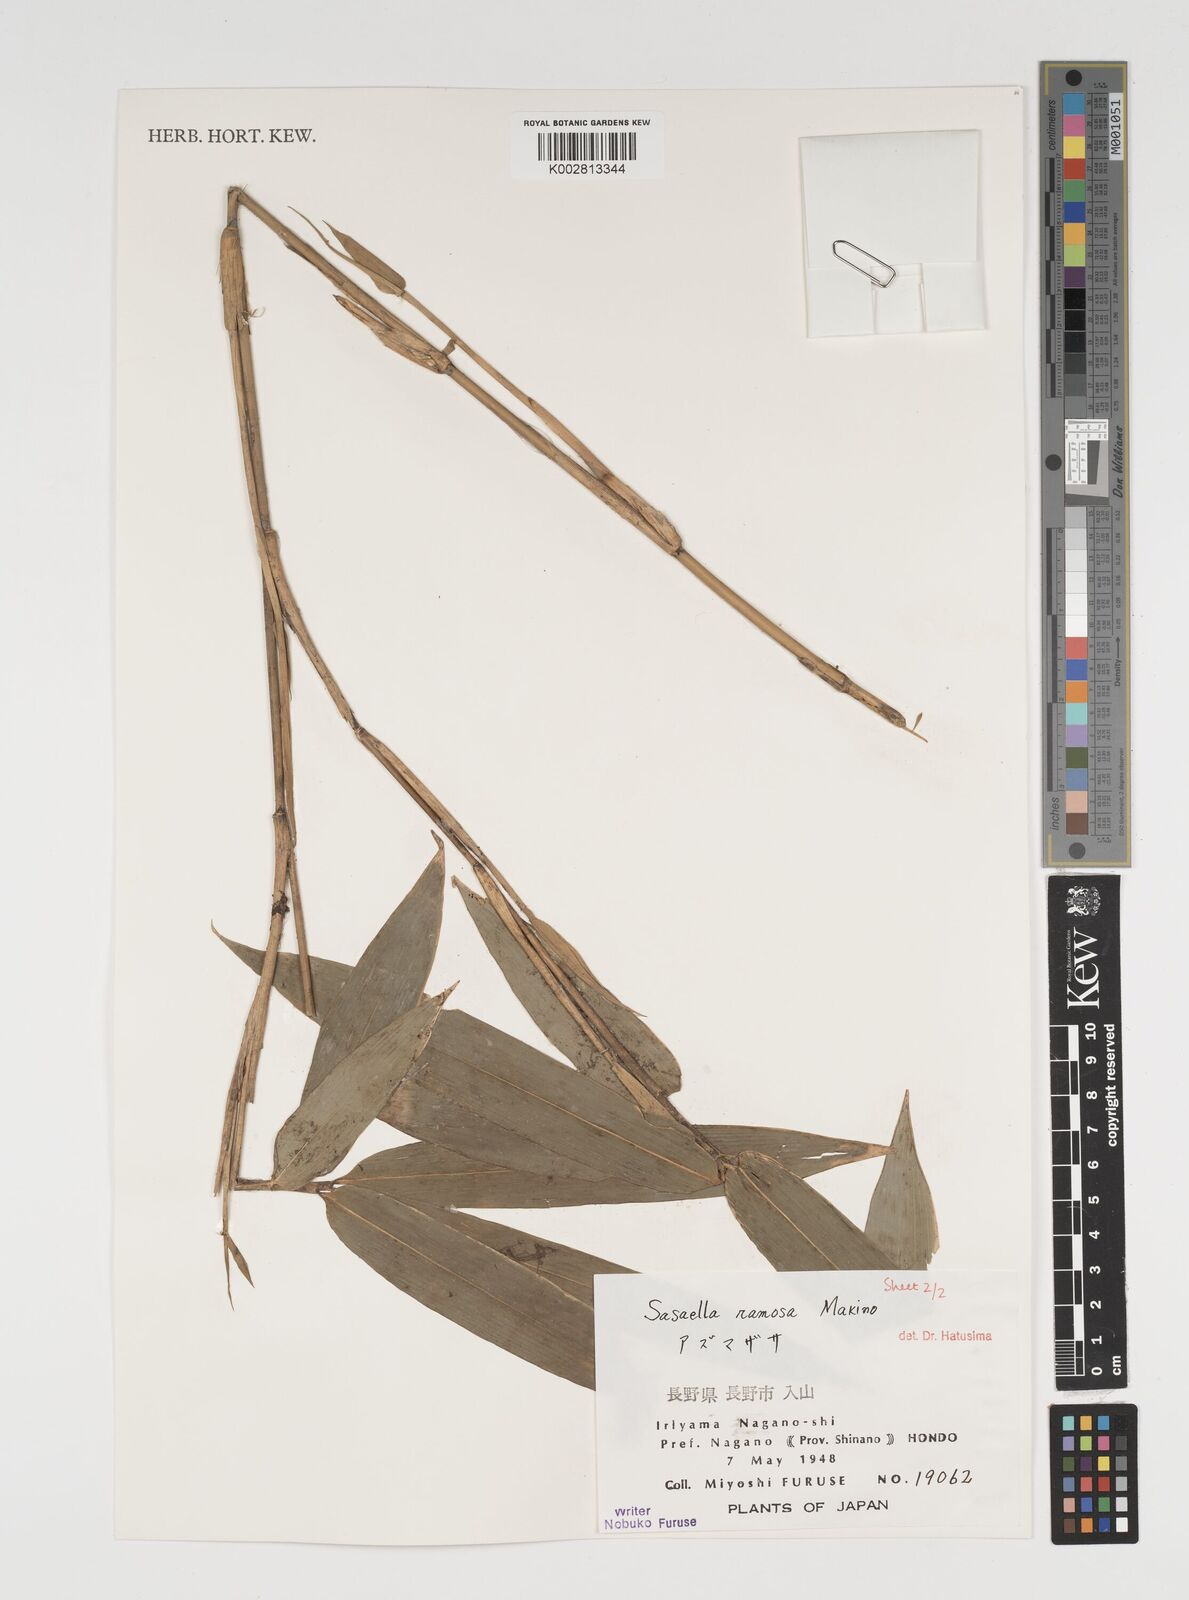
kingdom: Plantae
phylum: Tracheophyta
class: Liliopsida
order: Poales
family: Poaceae
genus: Sasaella
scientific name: Sasaella ramosa
